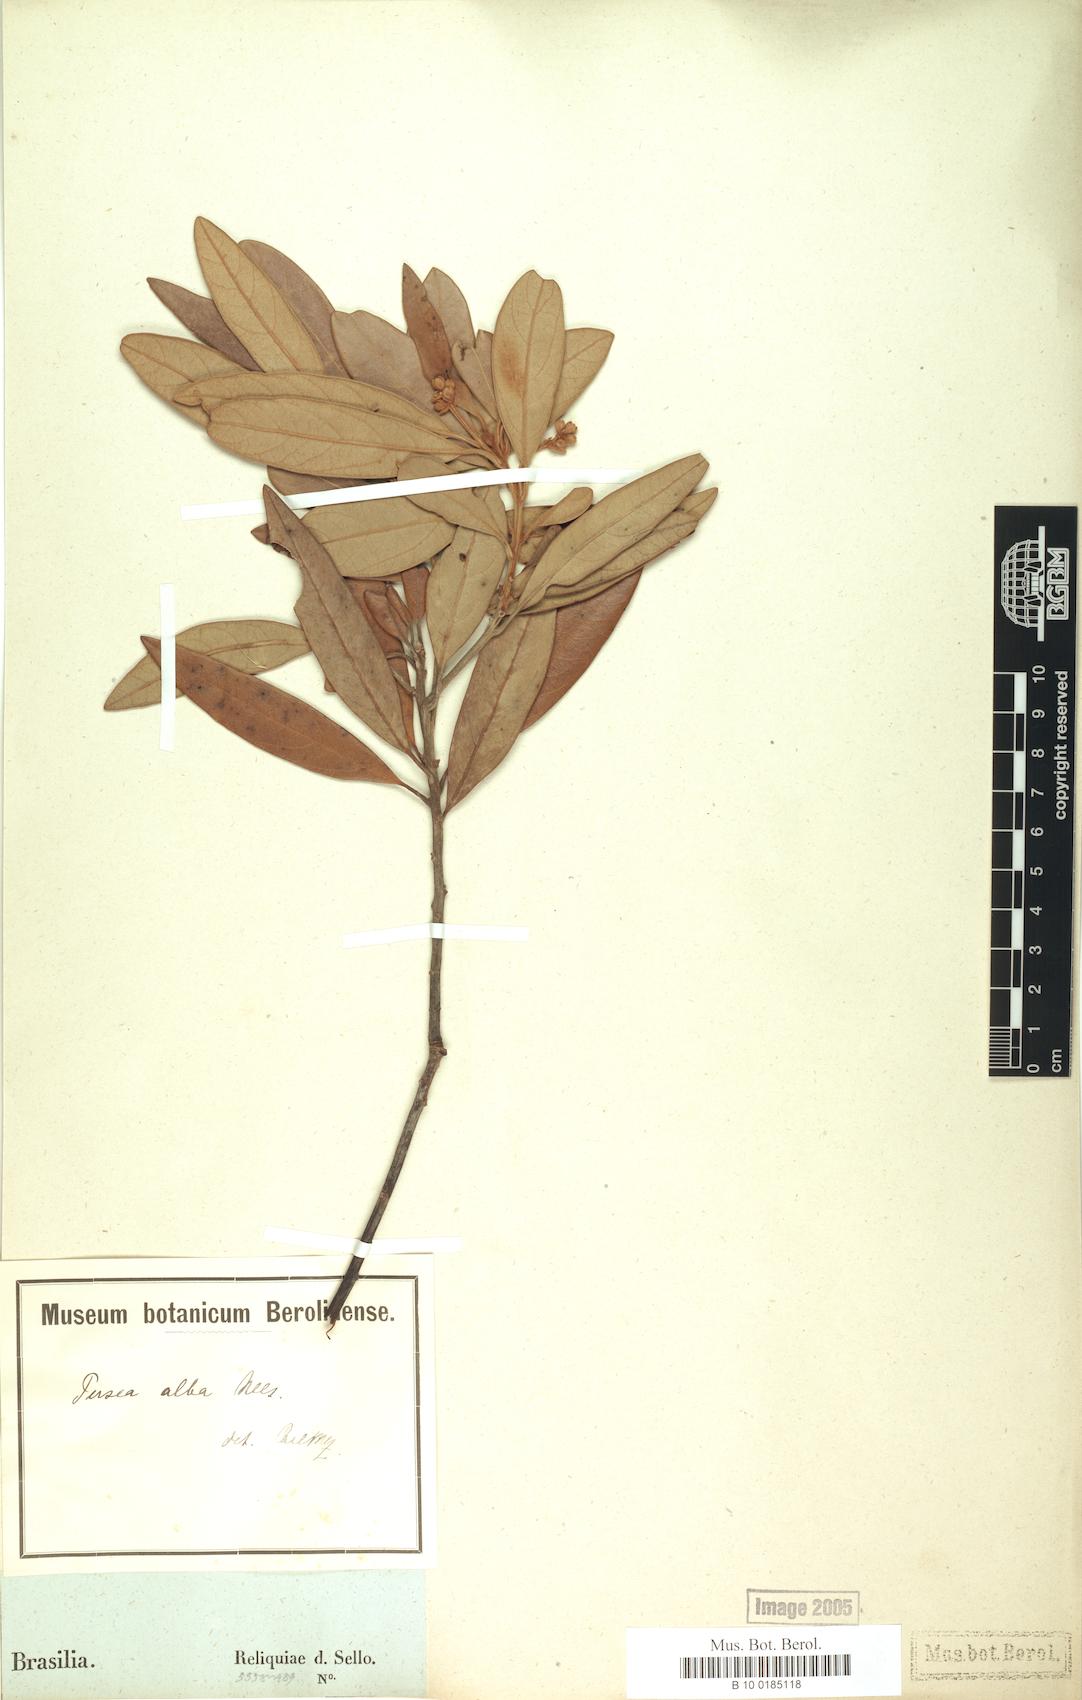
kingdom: Plantae
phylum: Tracheophyta
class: Magnoliopsida
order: Laurales
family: Lauraceae
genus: Persea
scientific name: Persea alba
